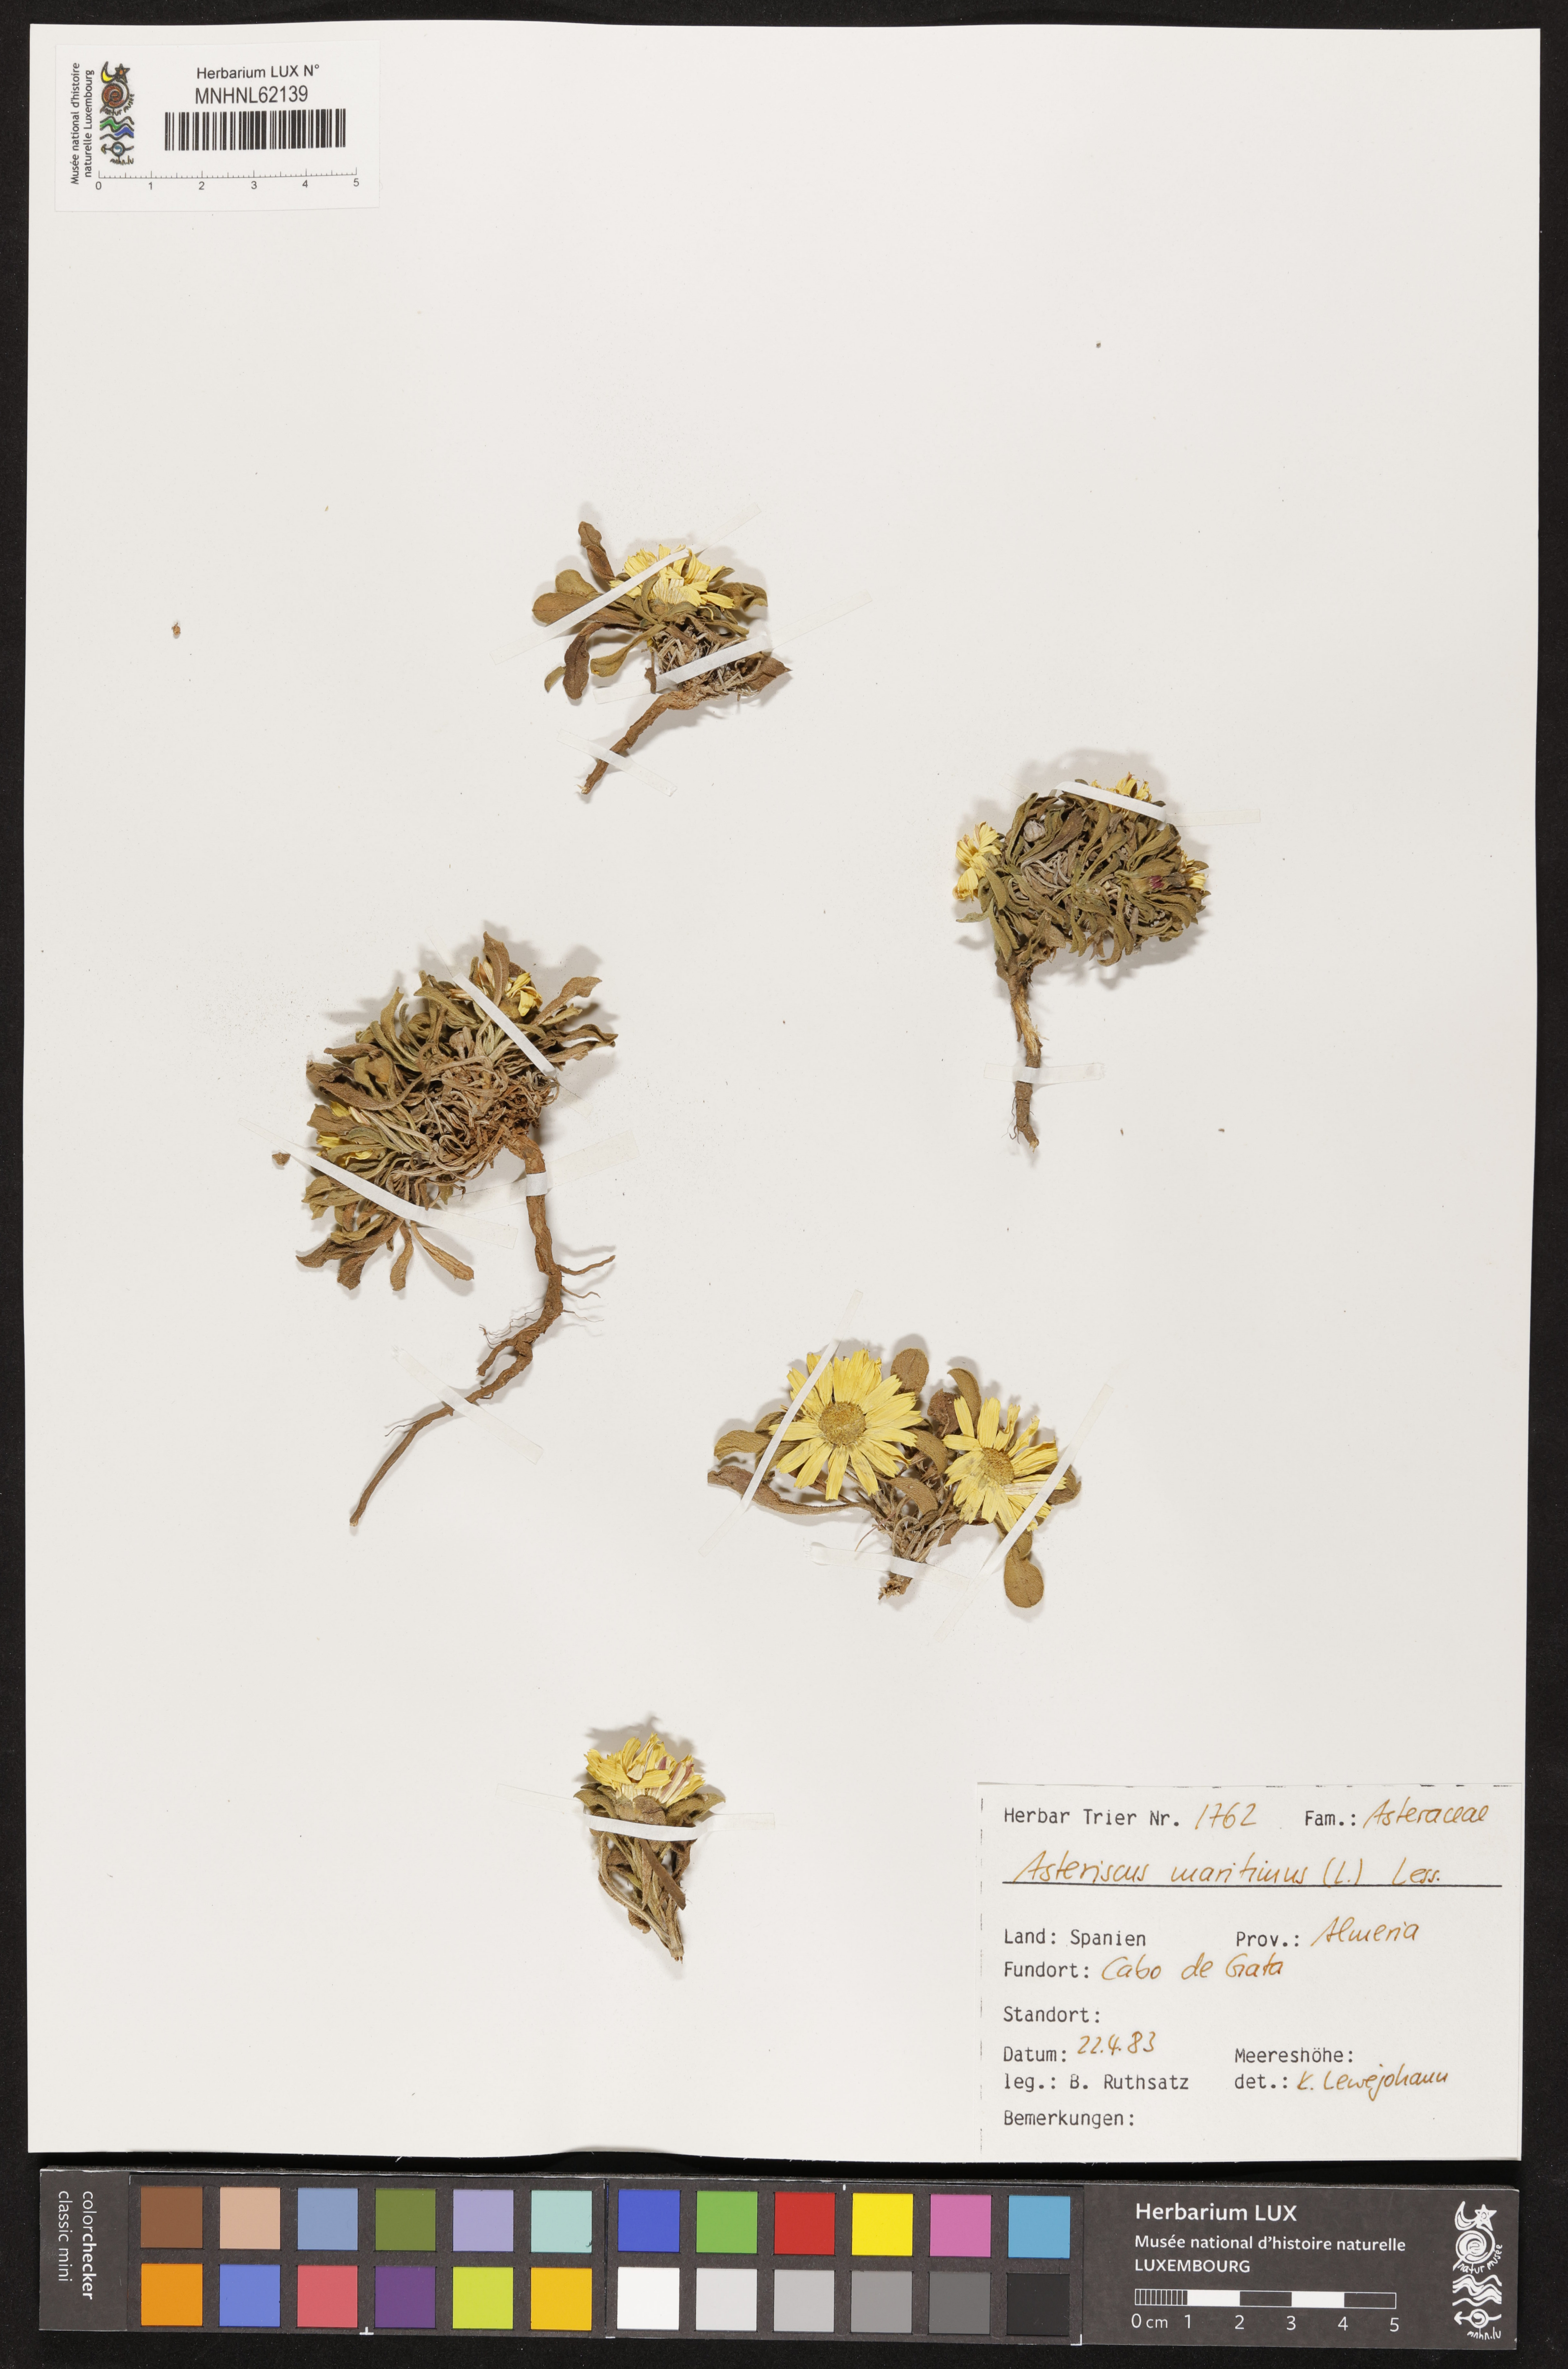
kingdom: Plantae
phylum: Tracheophyta
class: Magnoliopsida
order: Asterales
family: Asteraceae
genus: Pallenis
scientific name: Pallenis maritima
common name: Golden coin daisy
